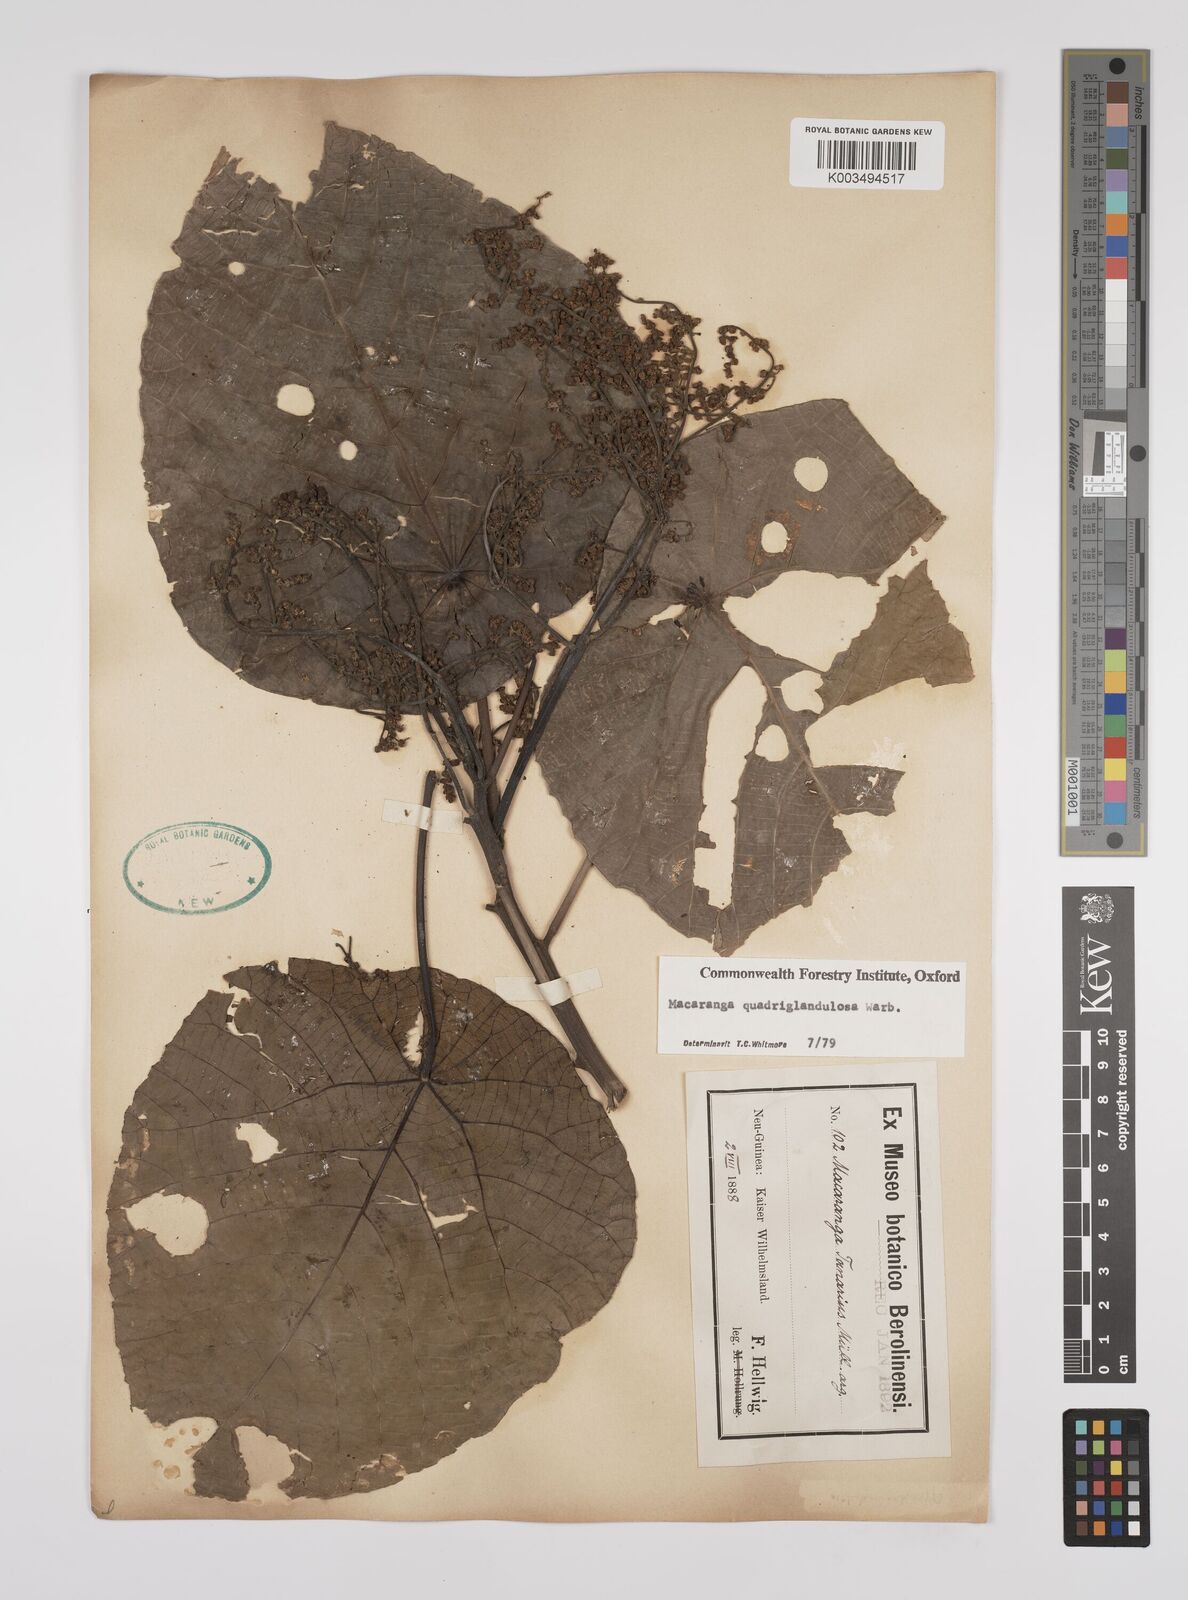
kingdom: Plantae
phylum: Tracheophyta
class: Magnoliopsida
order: Malpighiales
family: Euphorbiaceae
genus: Macaranga
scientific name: Macaranga quadriglandulosa
